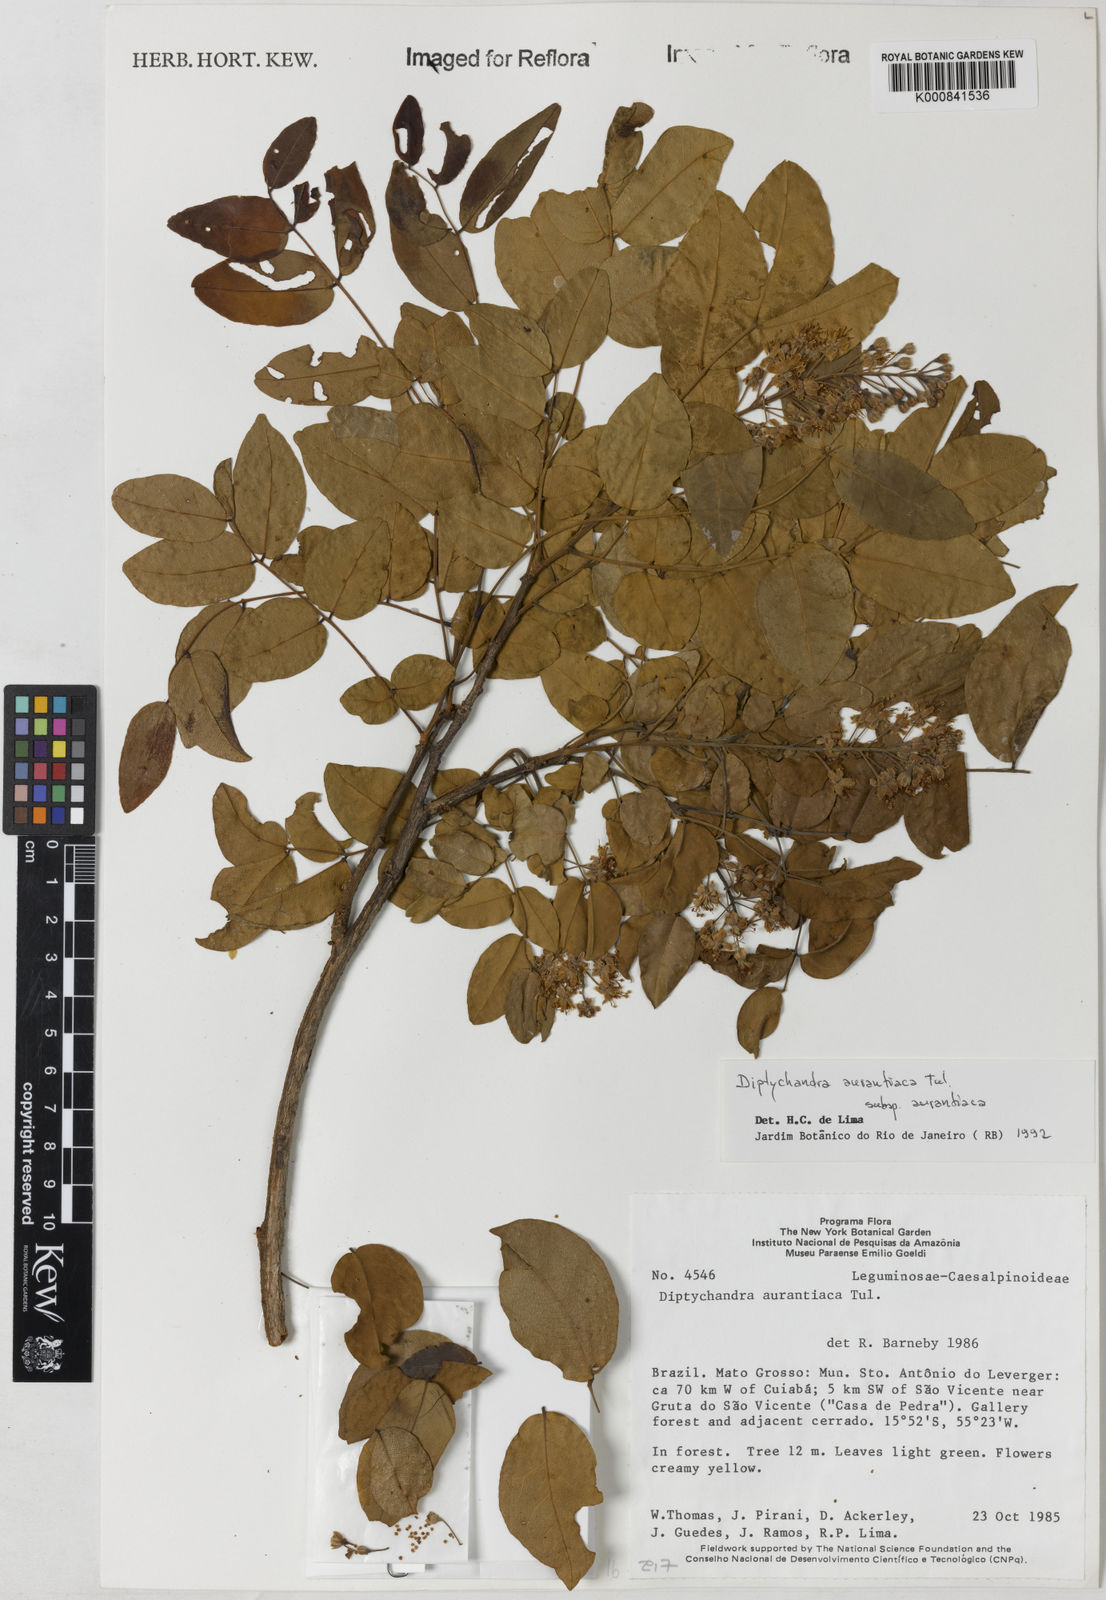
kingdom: Plantae
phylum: Tracheophyta
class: Magnoliopsida
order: Fabales
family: Fabaceae
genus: Diptychandra
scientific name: Diptychandra aurantiaca
